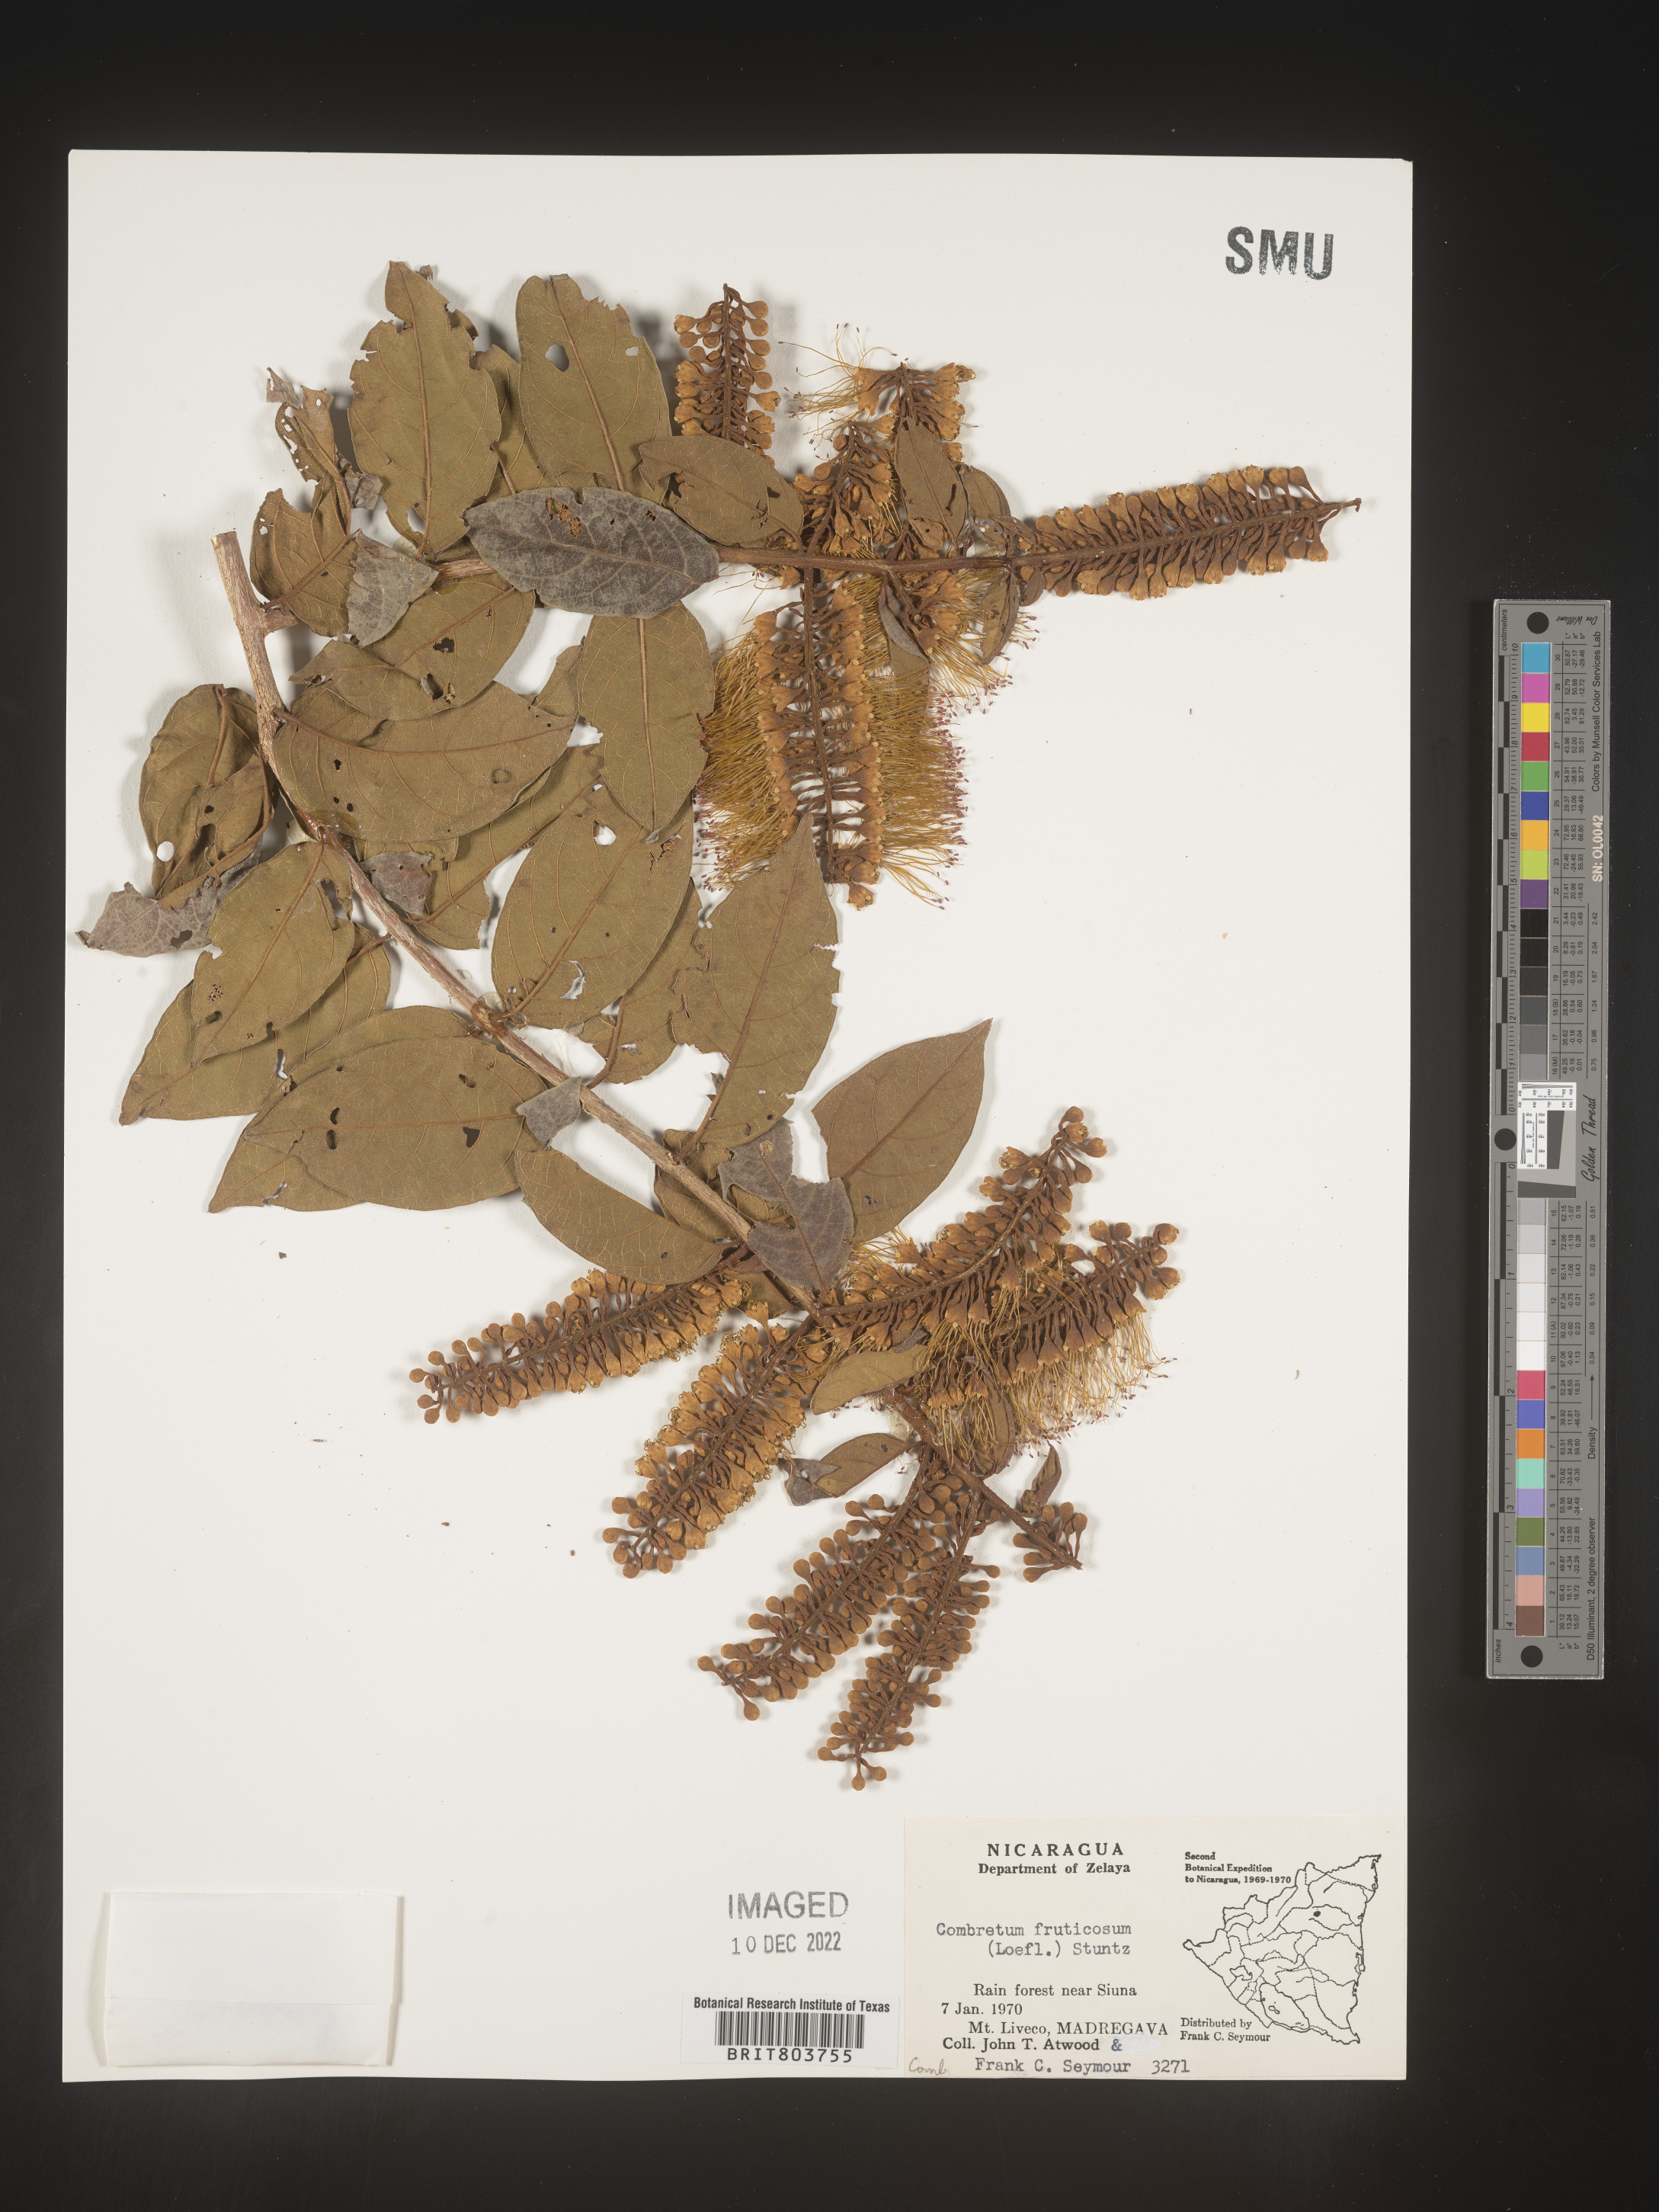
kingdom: Plantae
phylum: Tracheophyta
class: Magnoliopsida
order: Myrtales
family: Combretaceae
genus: Combretum
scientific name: Combretum
